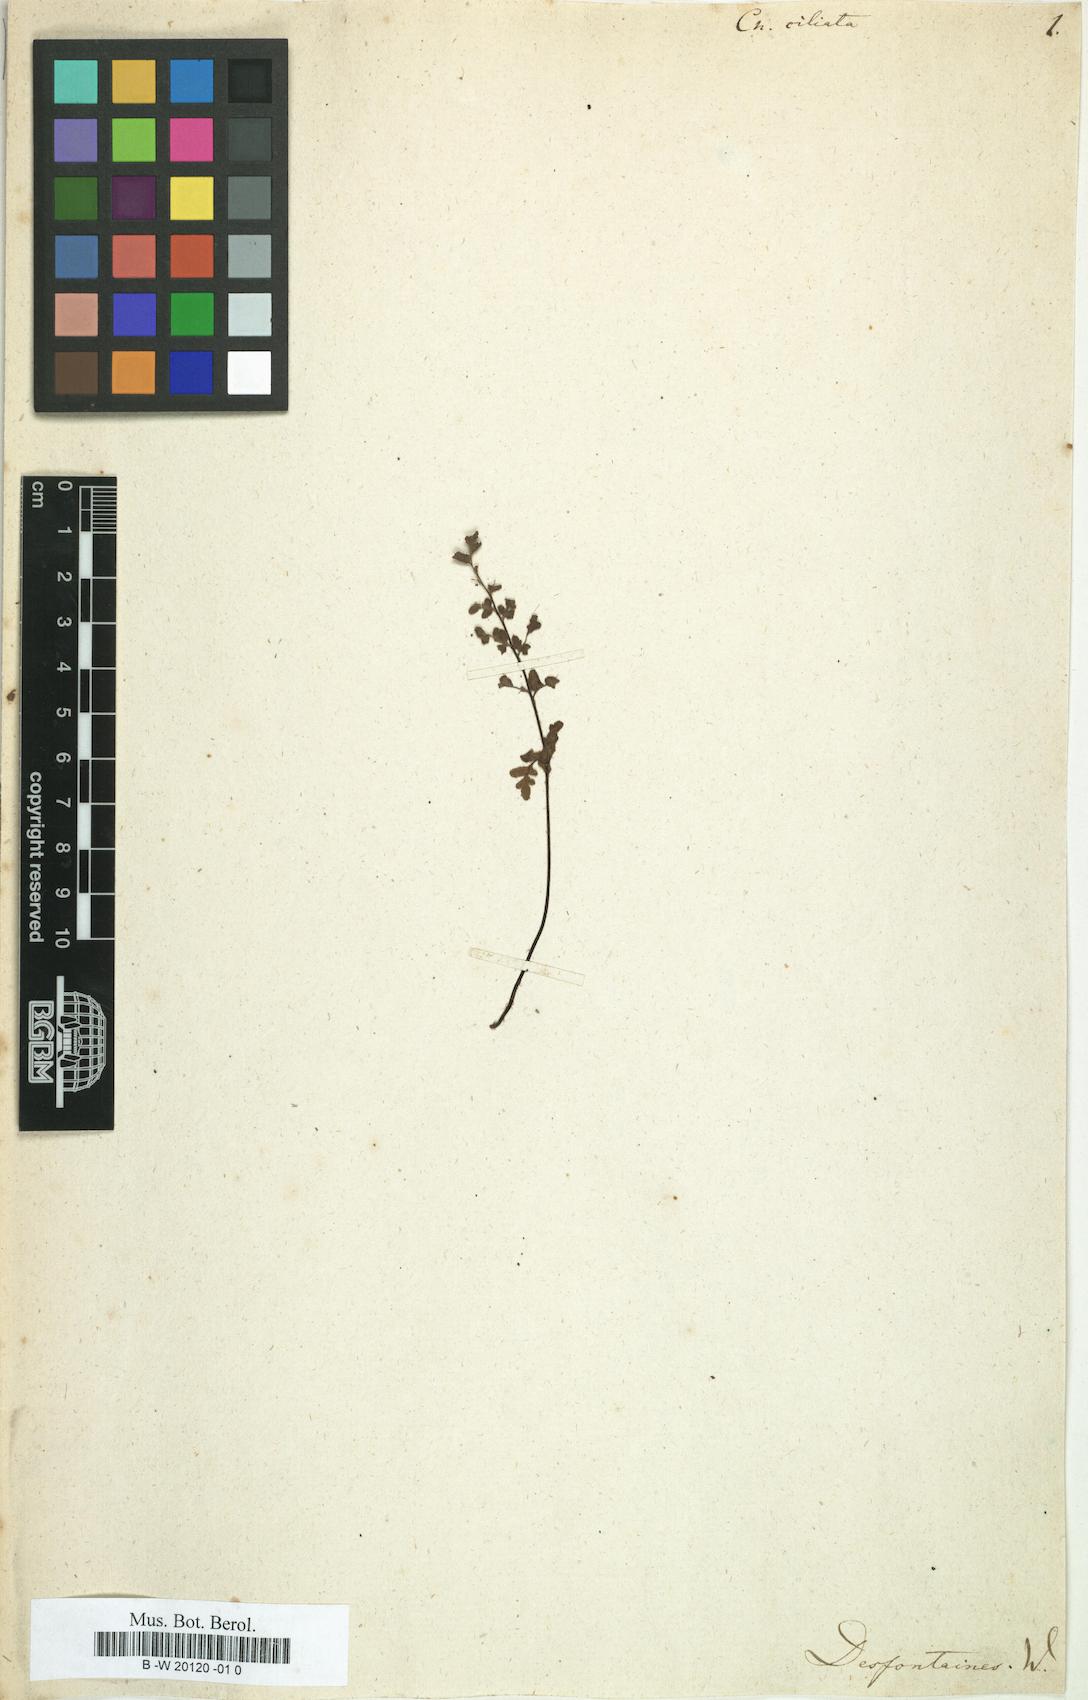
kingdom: Plantae
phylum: Tracheophyta
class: Polypodiopsida
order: Polypodiales
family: Pteridaceae
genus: Gaga
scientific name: Gaga marginata
